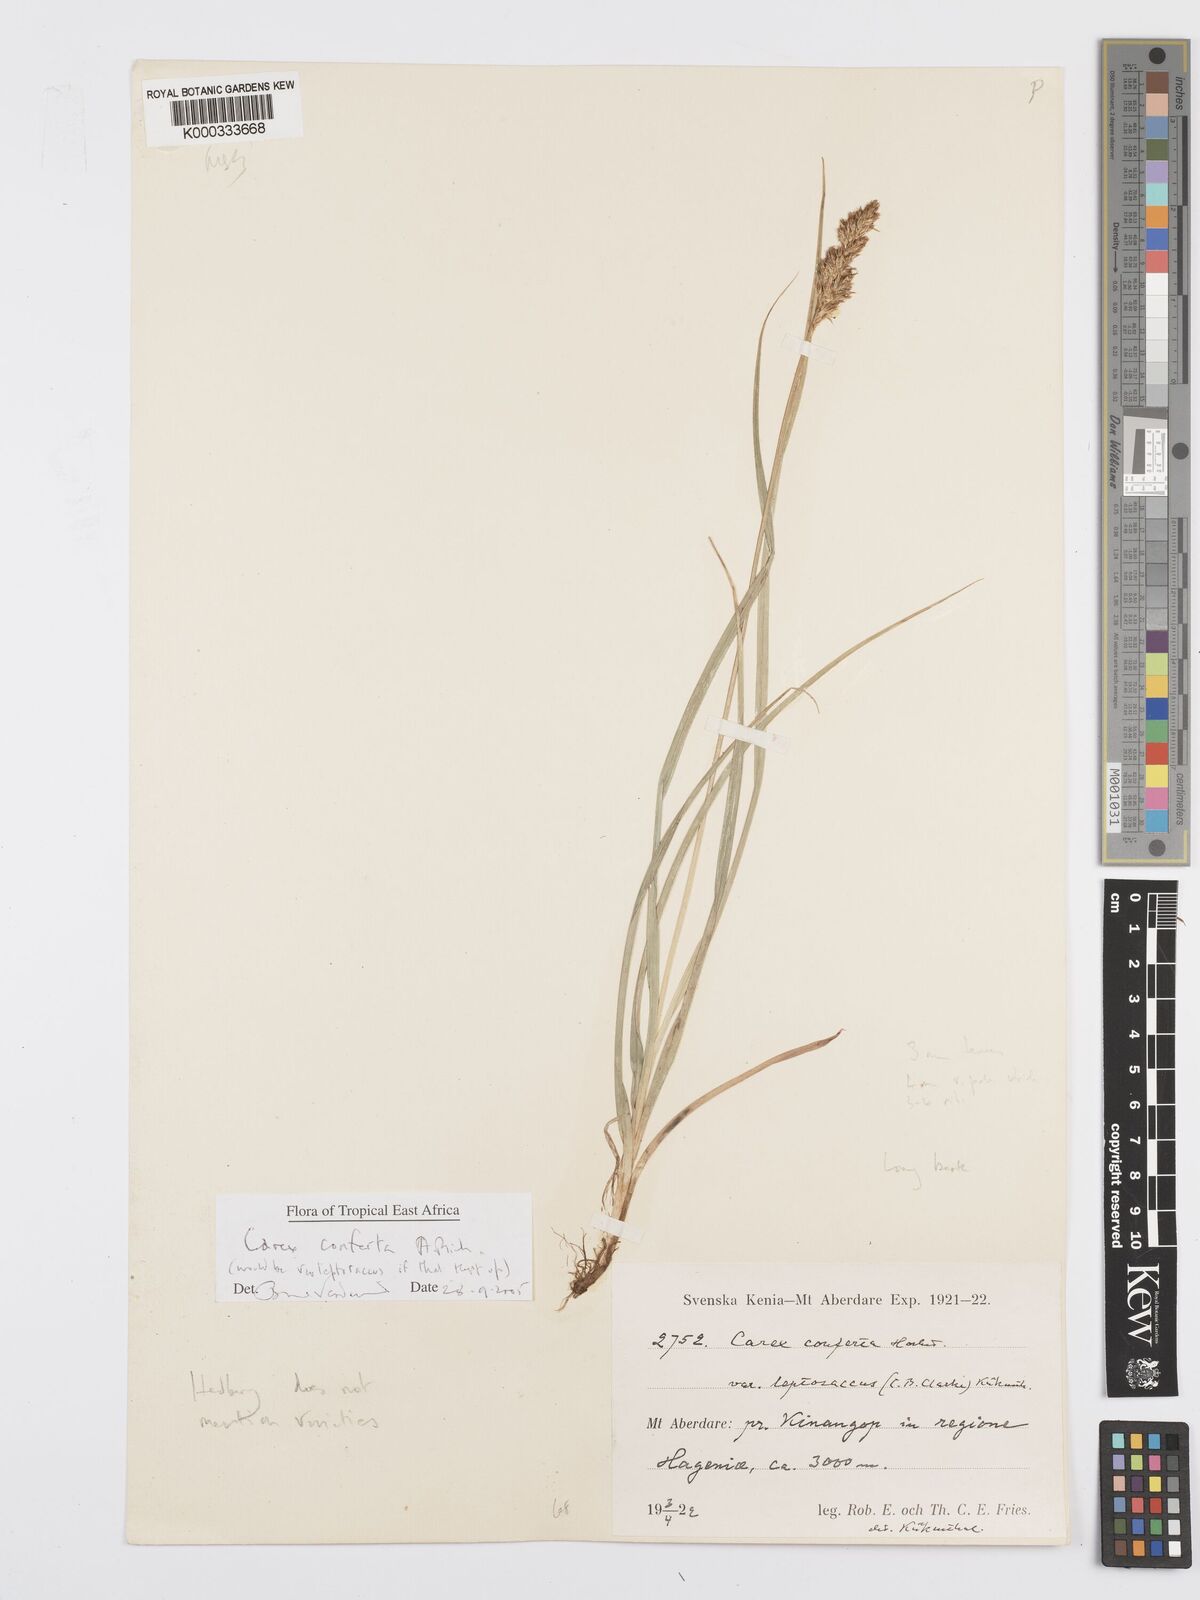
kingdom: Plantae
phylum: Tracheophyta
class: Liliopsida
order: Poales
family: Cyperaceae
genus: Carex
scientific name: Carex conferta
